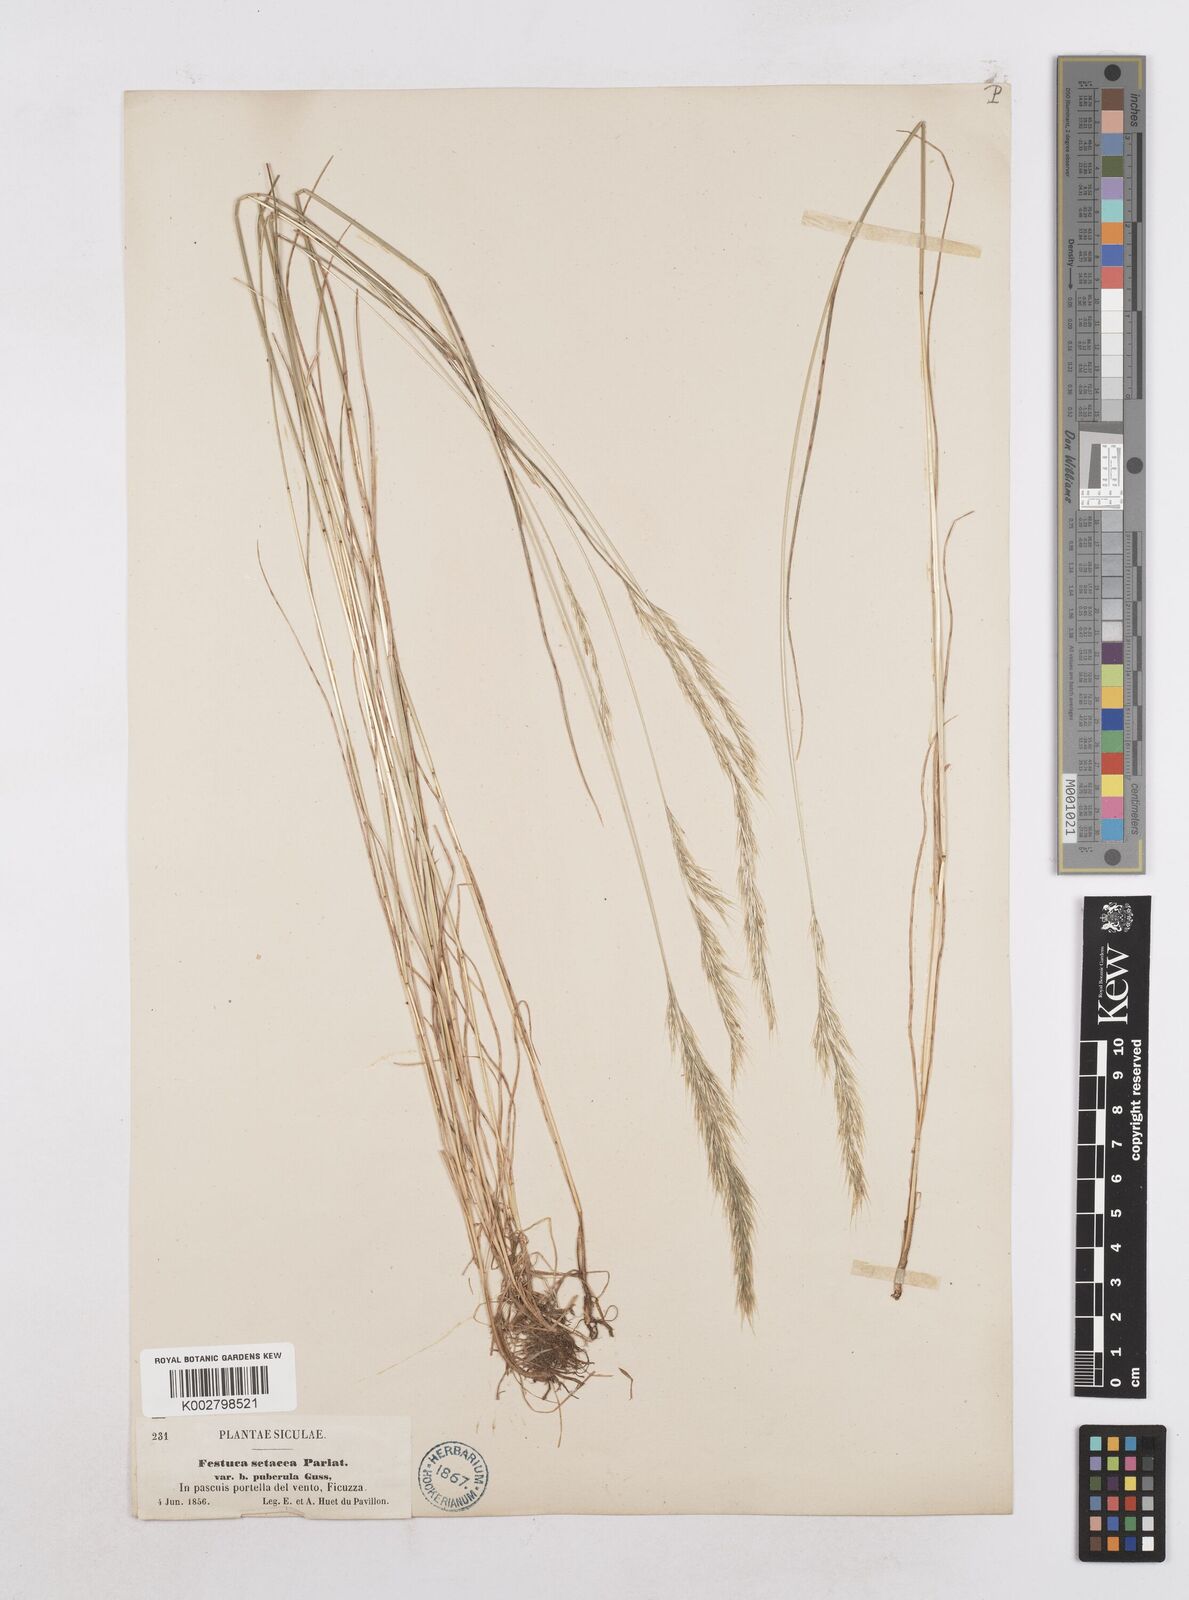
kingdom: Plantae
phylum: Tracheophyta
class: Liliopsida
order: Poales
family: Poaceae
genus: Festuca
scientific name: Festuca sicula
